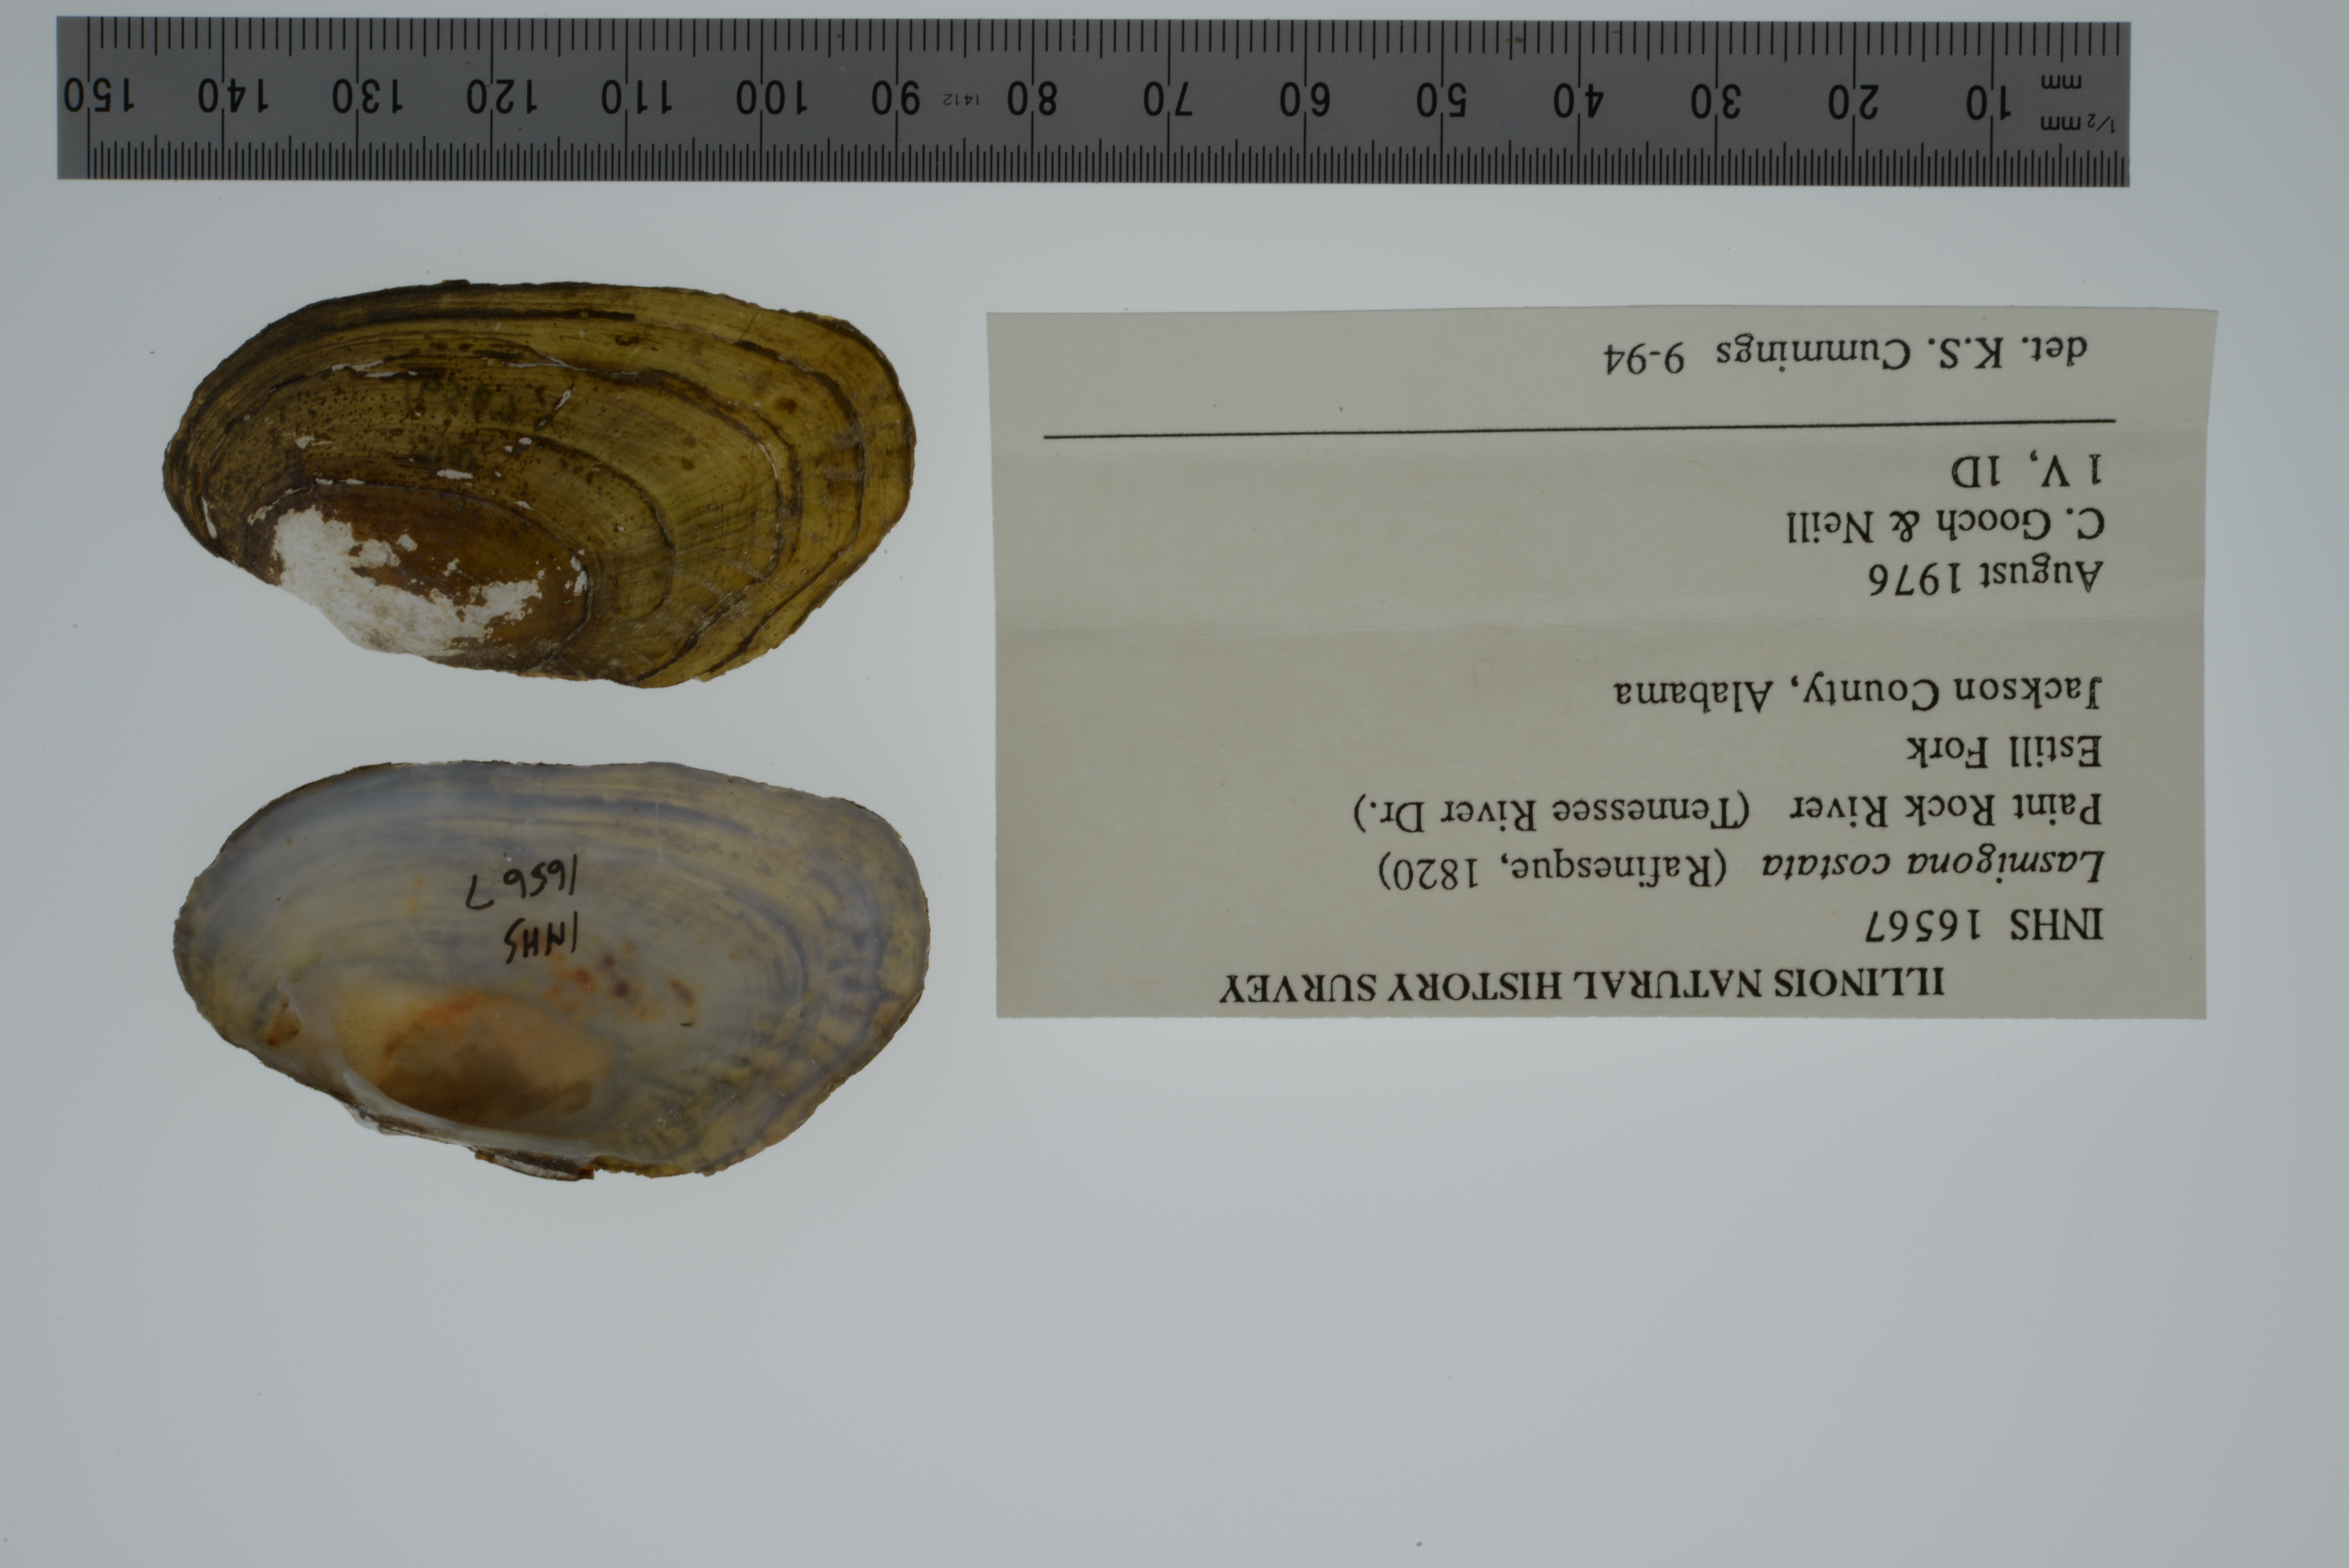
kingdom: Animalia
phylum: Mollusca
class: Bivalvia
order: Unionida
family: Unionidae
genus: Lasmigona
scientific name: Lasmigona costata
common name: Flutedshell
